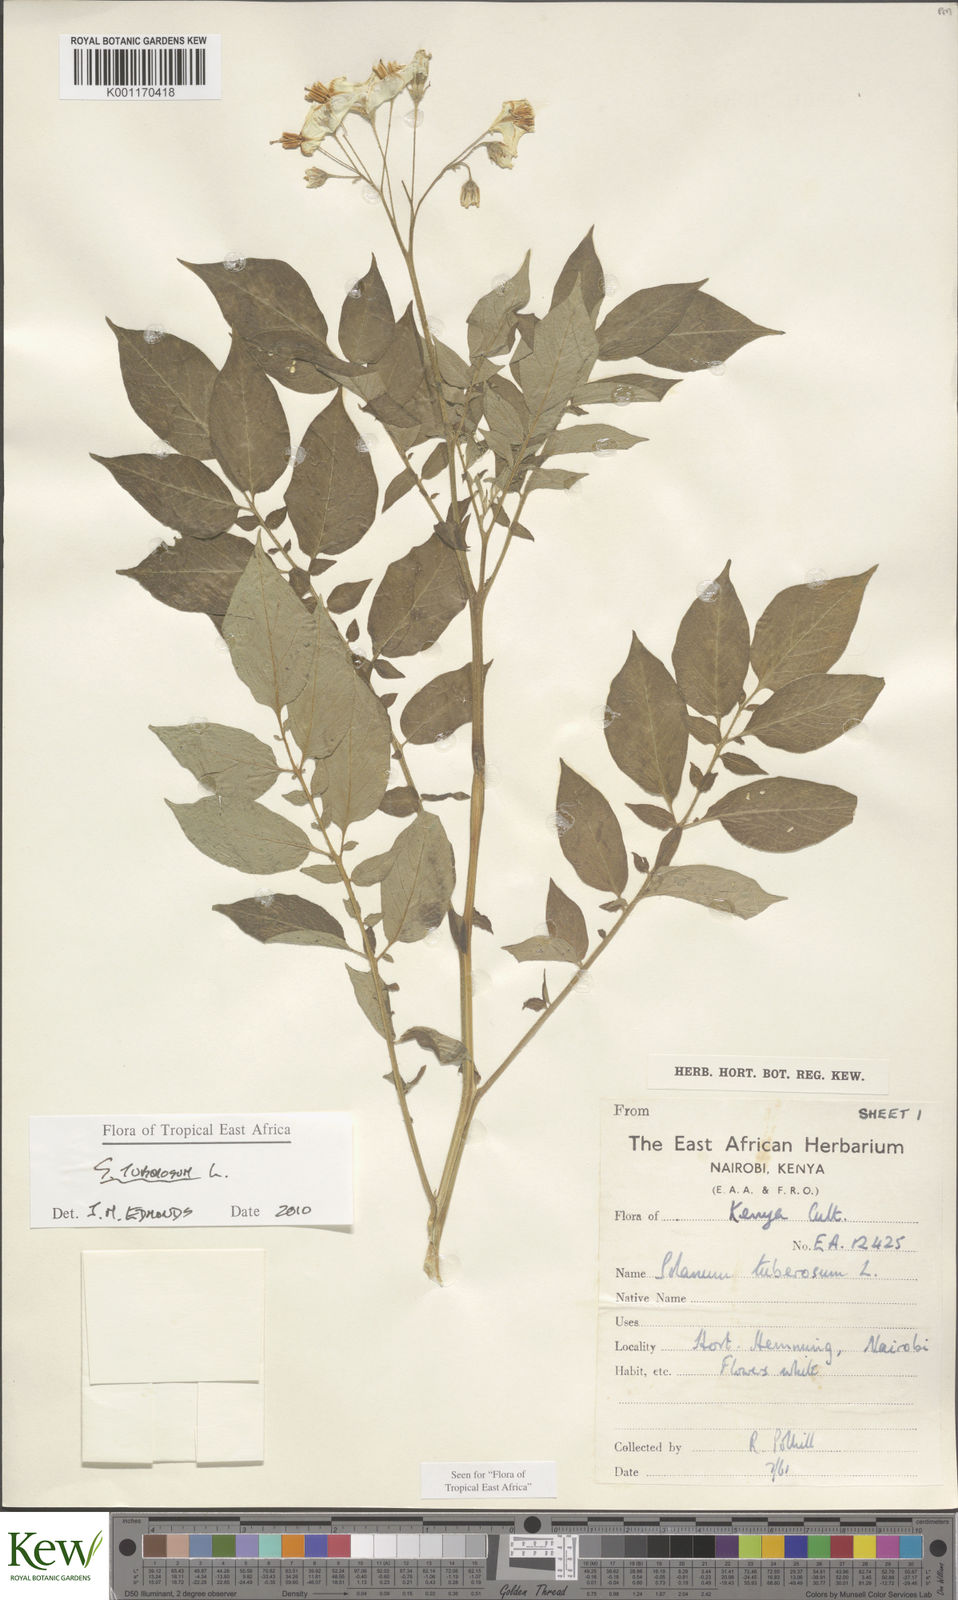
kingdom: Plantae
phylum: Tracheophyta
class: Magnoliopsida
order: Solanales
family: Solanaceae
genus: Solanum
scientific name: Solanum tuberosum
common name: Potato
